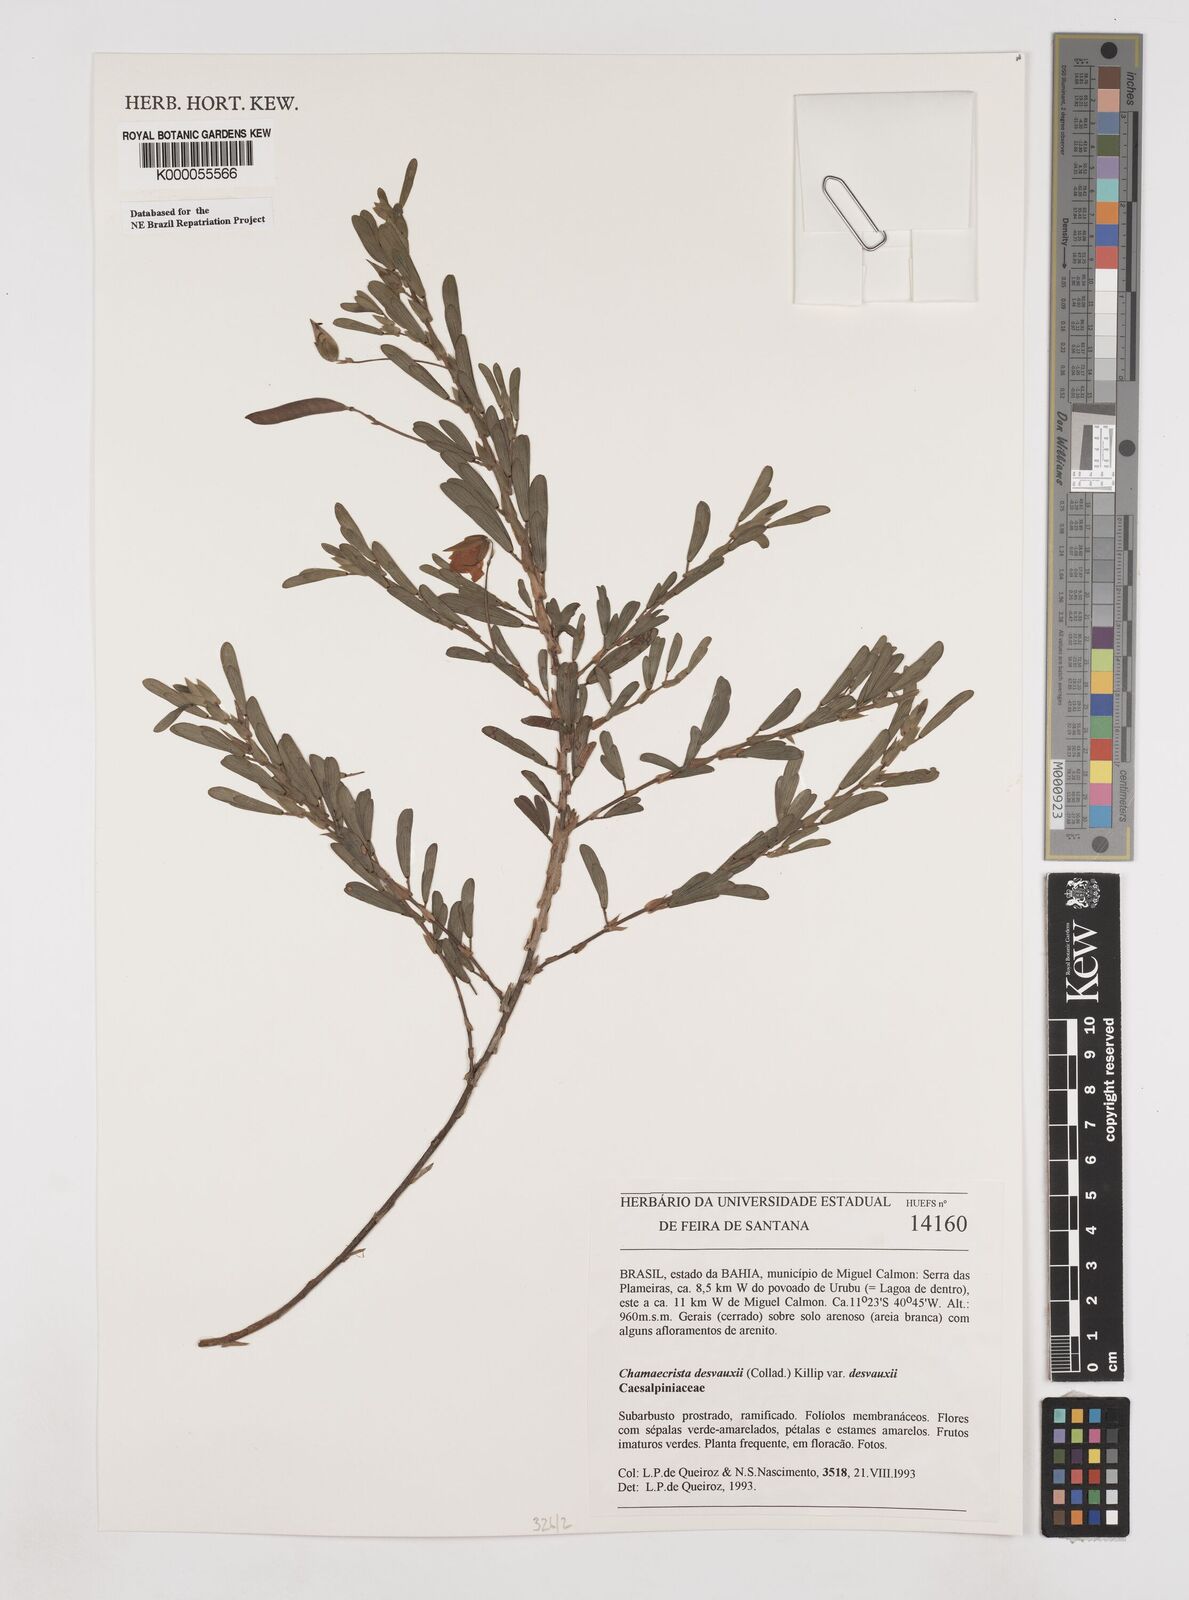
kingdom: Plantae
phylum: Tracheophyta
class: Magnoliopsida
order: Fabales
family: Fabaceae
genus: Chamaecrista
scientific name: Chamaecrista desvauxii
